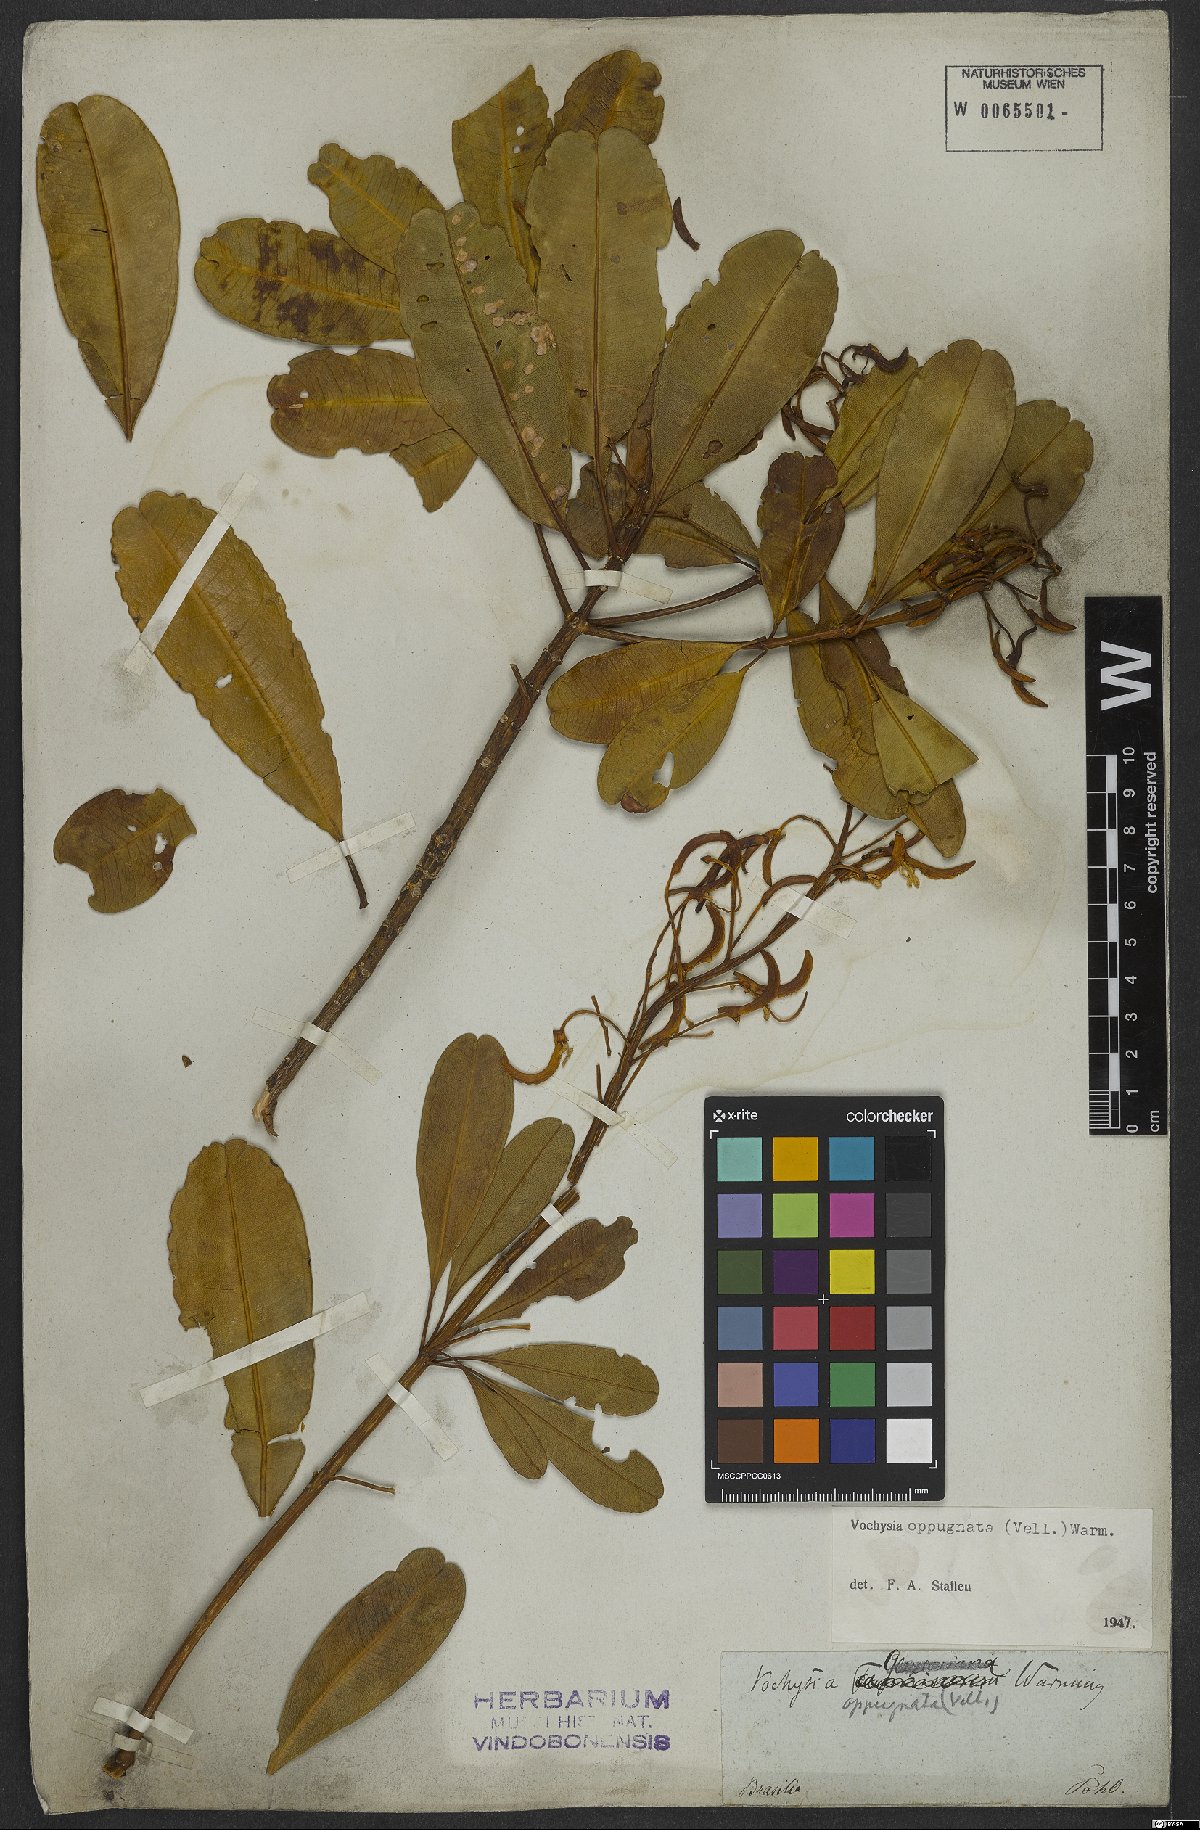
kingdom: Plantae
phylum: Tracheophyta
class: Magnoliopsida
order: Myrtales
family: Vochysiaceae
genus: Vochysia
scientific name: Vochysia oppugnata
